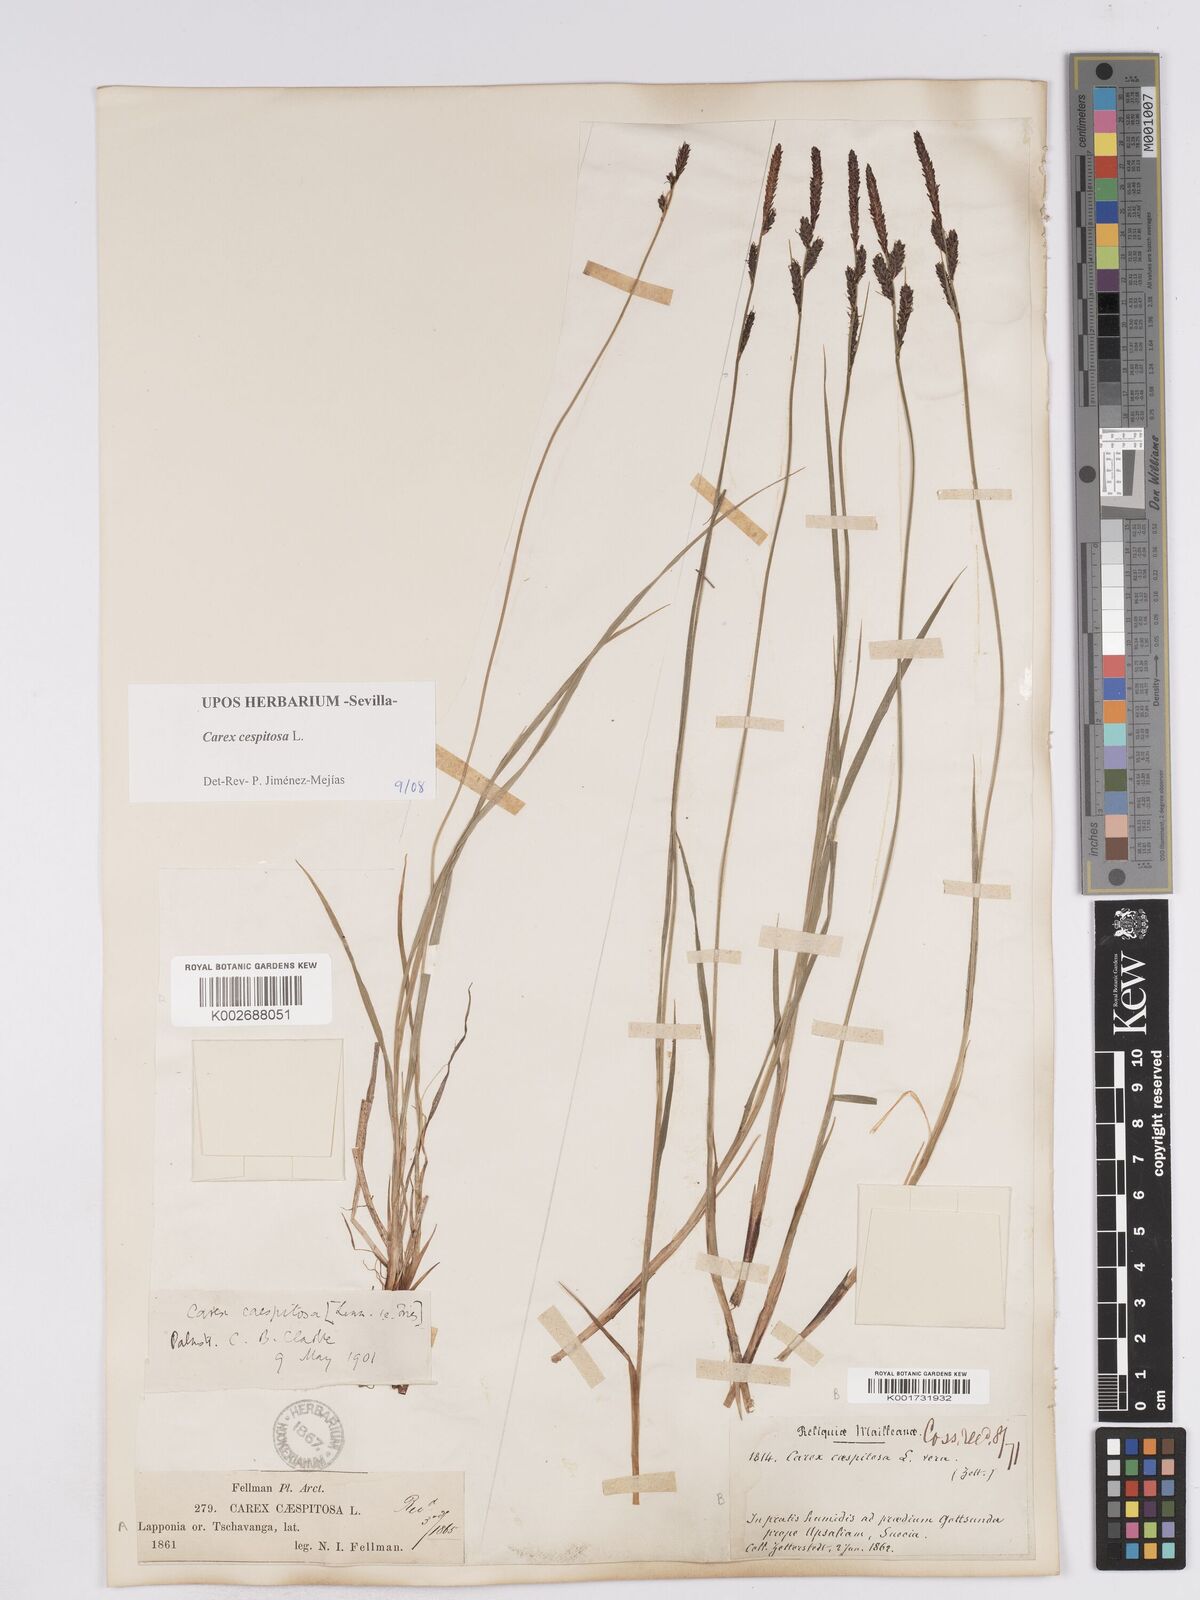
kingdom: Plantae
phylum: Tracheophyta
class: Liliopsida
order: Poales
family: Cyperaceae
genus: Carex
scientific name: Carex
